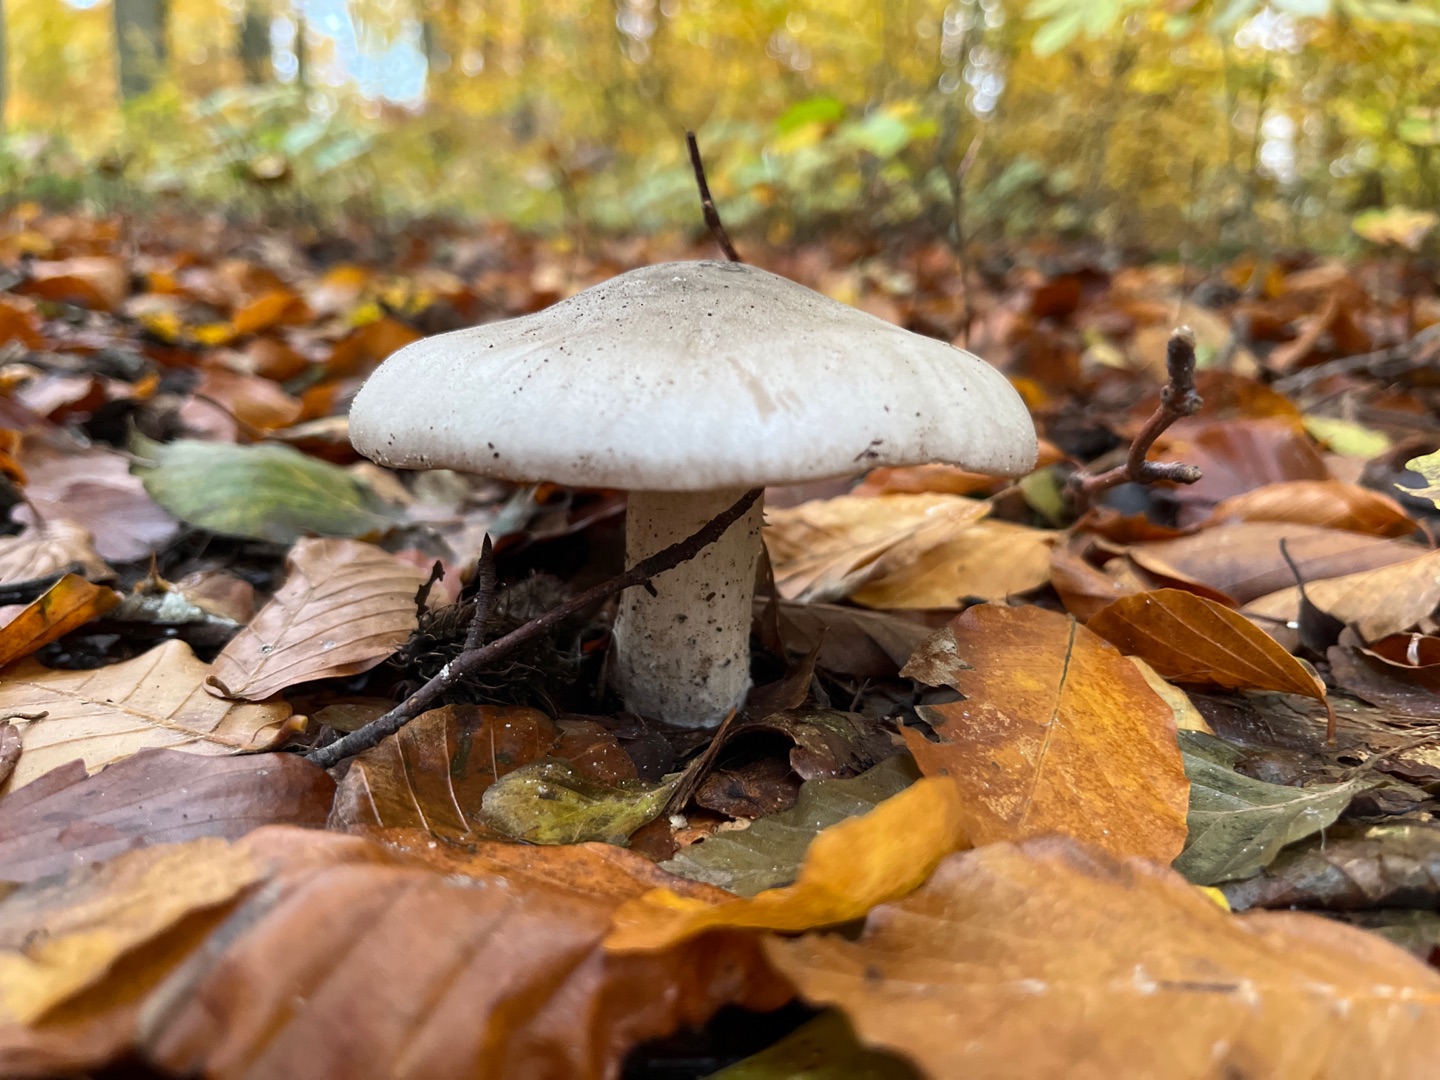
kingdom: Fungi
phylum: Basidiomycota
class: Agaricomycetes
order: Agaricales
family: Tricholomataceae
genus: Clitocybe
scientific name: Clitocybe nebularis
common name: Tåge-tragthat
